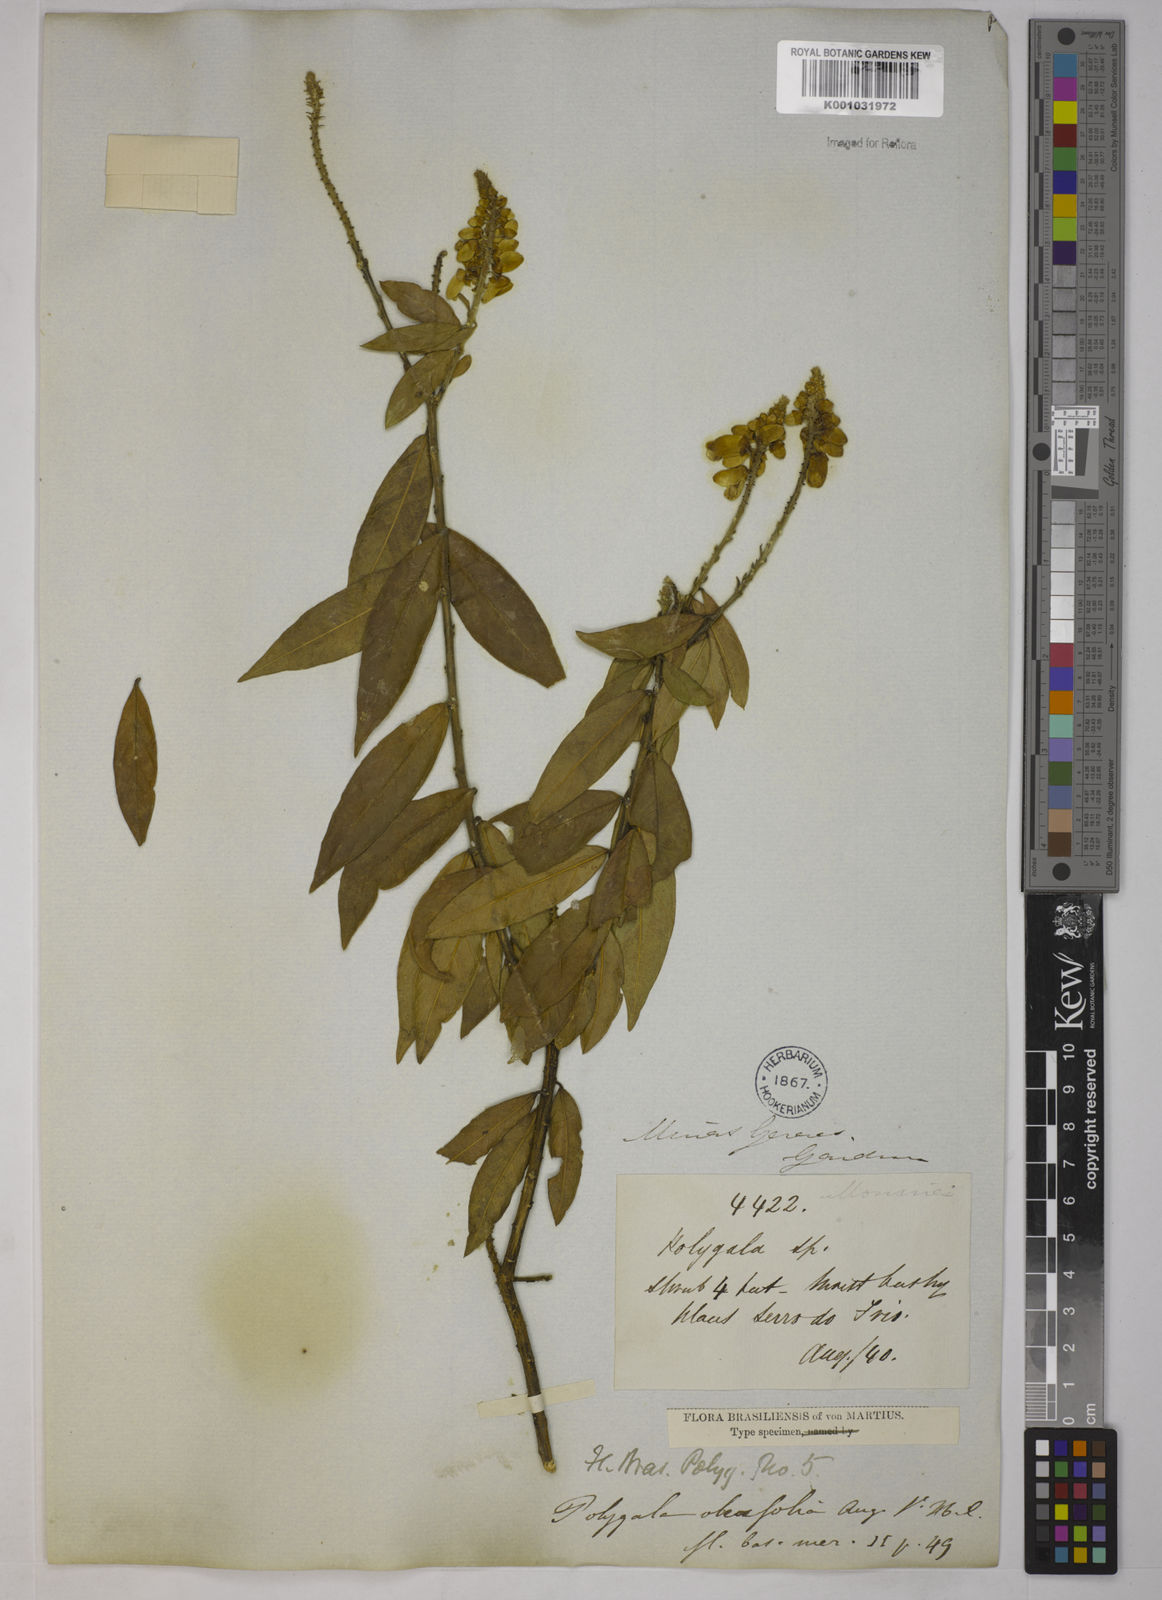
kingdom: Plantae
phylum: Tracheophyta
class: Magnoliopsida
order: Fabales
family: Polygalaceae
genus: Caamembeca
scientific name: Caamembeca oleifolia
